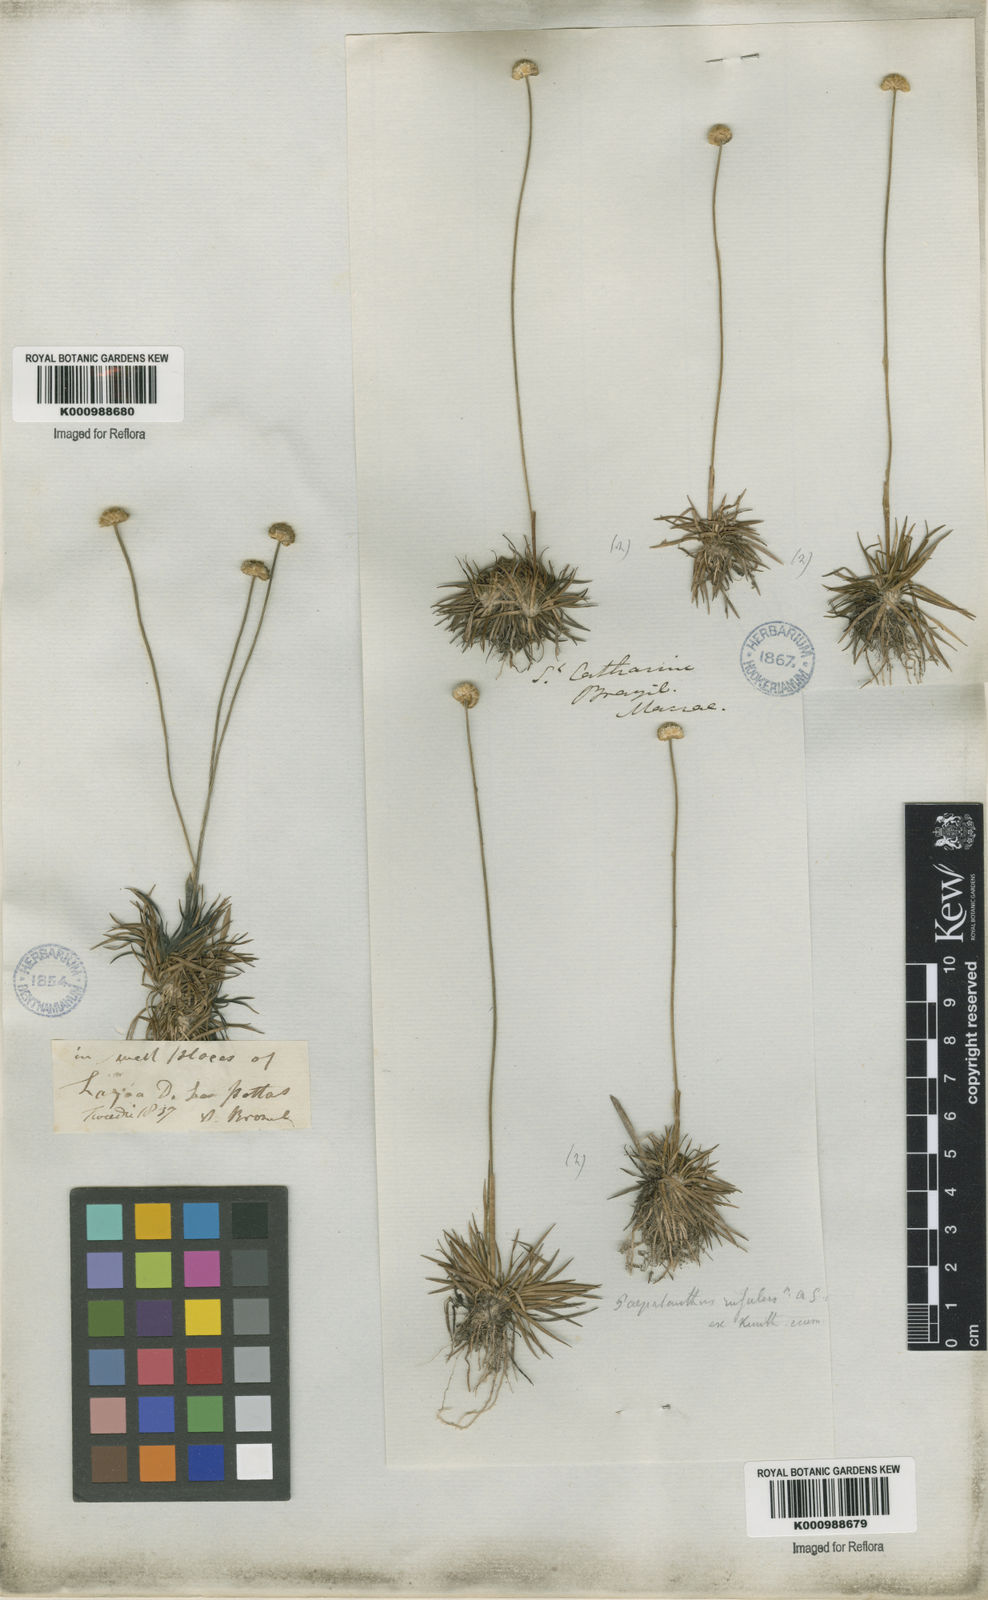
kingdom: Plantae
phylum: Tracheophyta
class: Liliopsida
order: Poales
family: Eriocaulaceae
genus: Syngonanthus
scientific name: Syngonanthus chrysanthus
